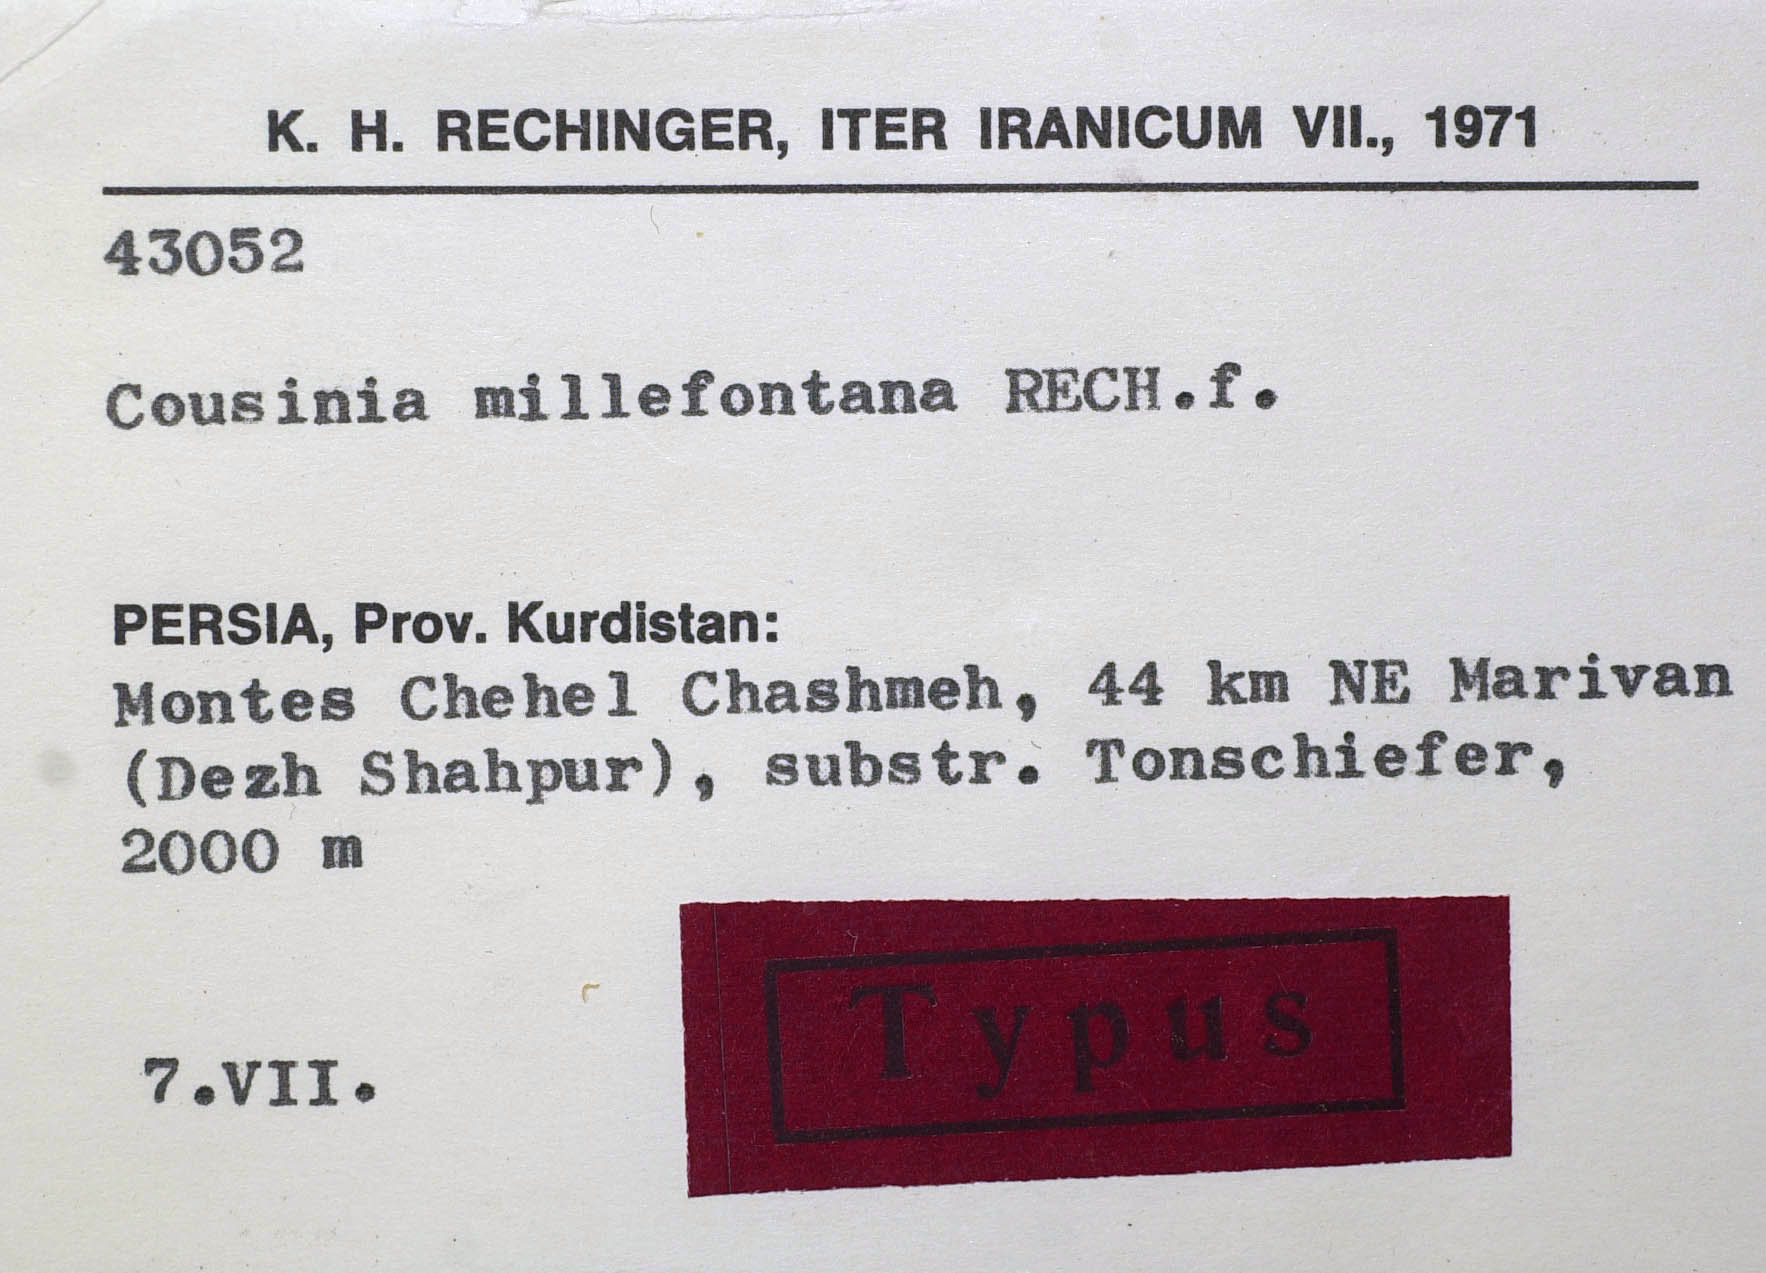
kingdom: Plantae
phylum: Tracheophyta
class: Magnoliopsida
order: Asterales
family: Asteraceae
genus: Cousinia
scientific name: Cousinia millefontana
